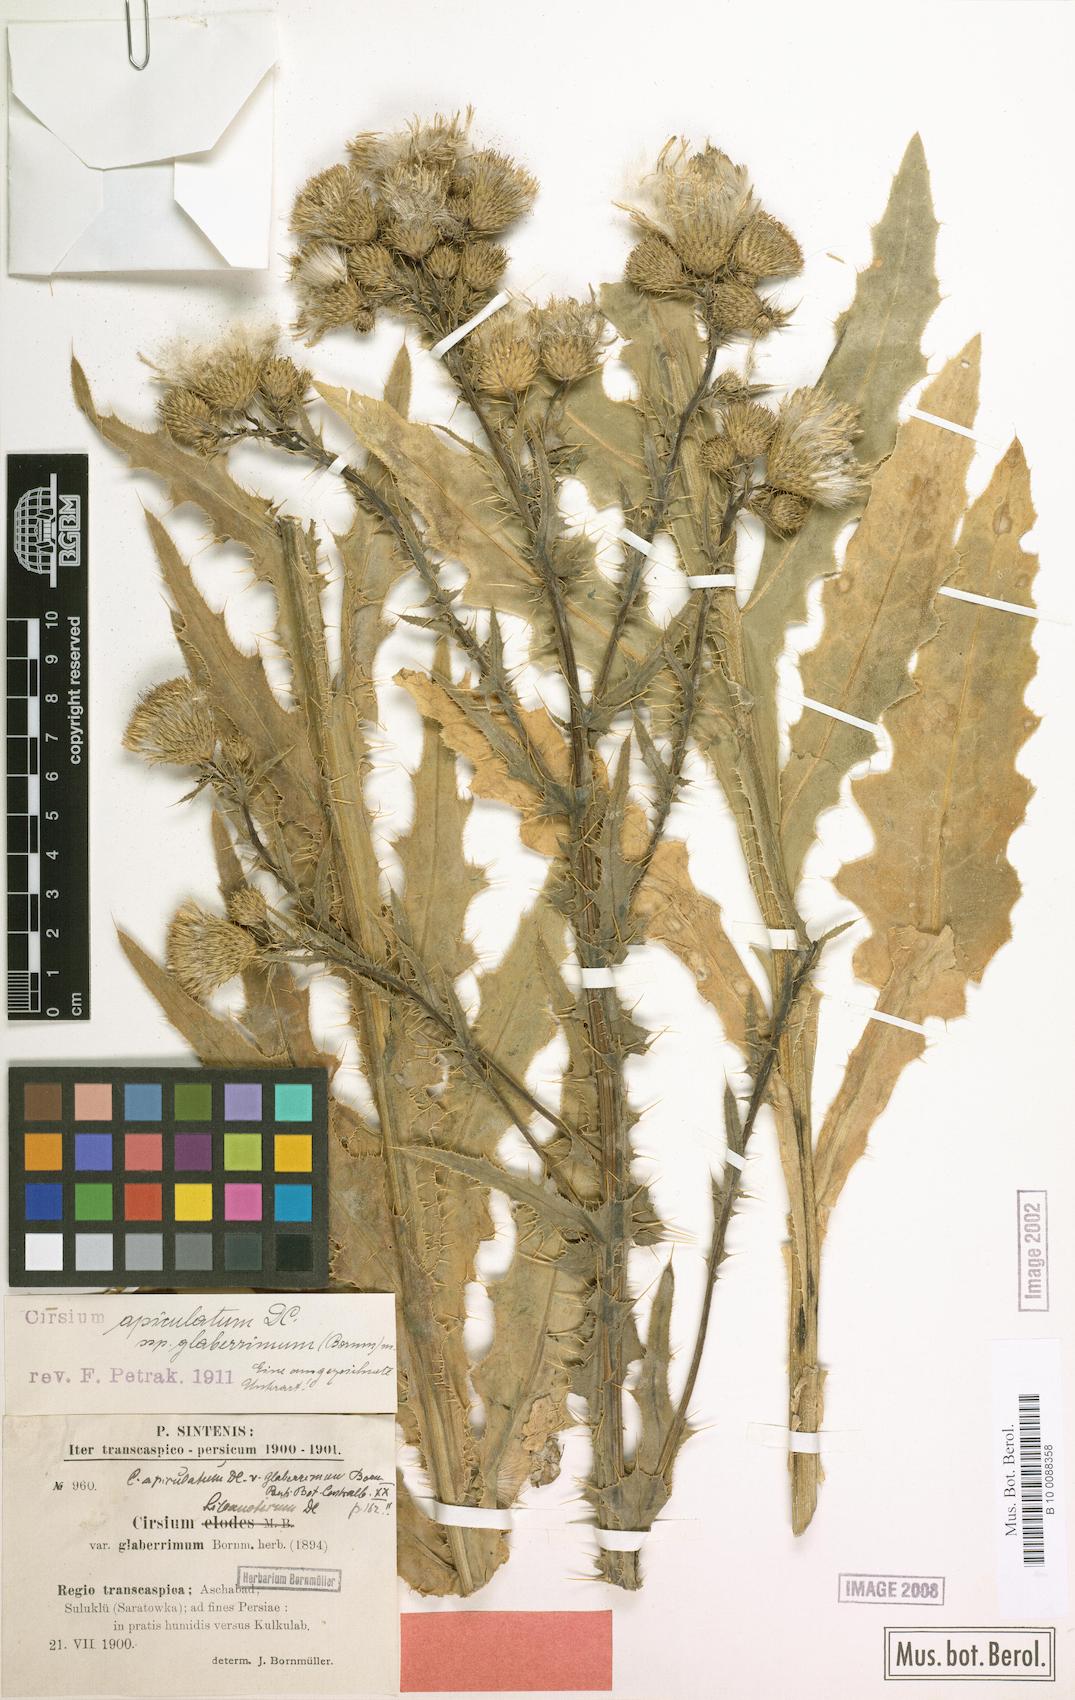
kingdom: Plantae
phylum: Tracheophyta
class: Magnoliopsida
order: Asterales
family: Asteraceae
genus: Cirsium
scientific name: Cirsium glaberrimum
